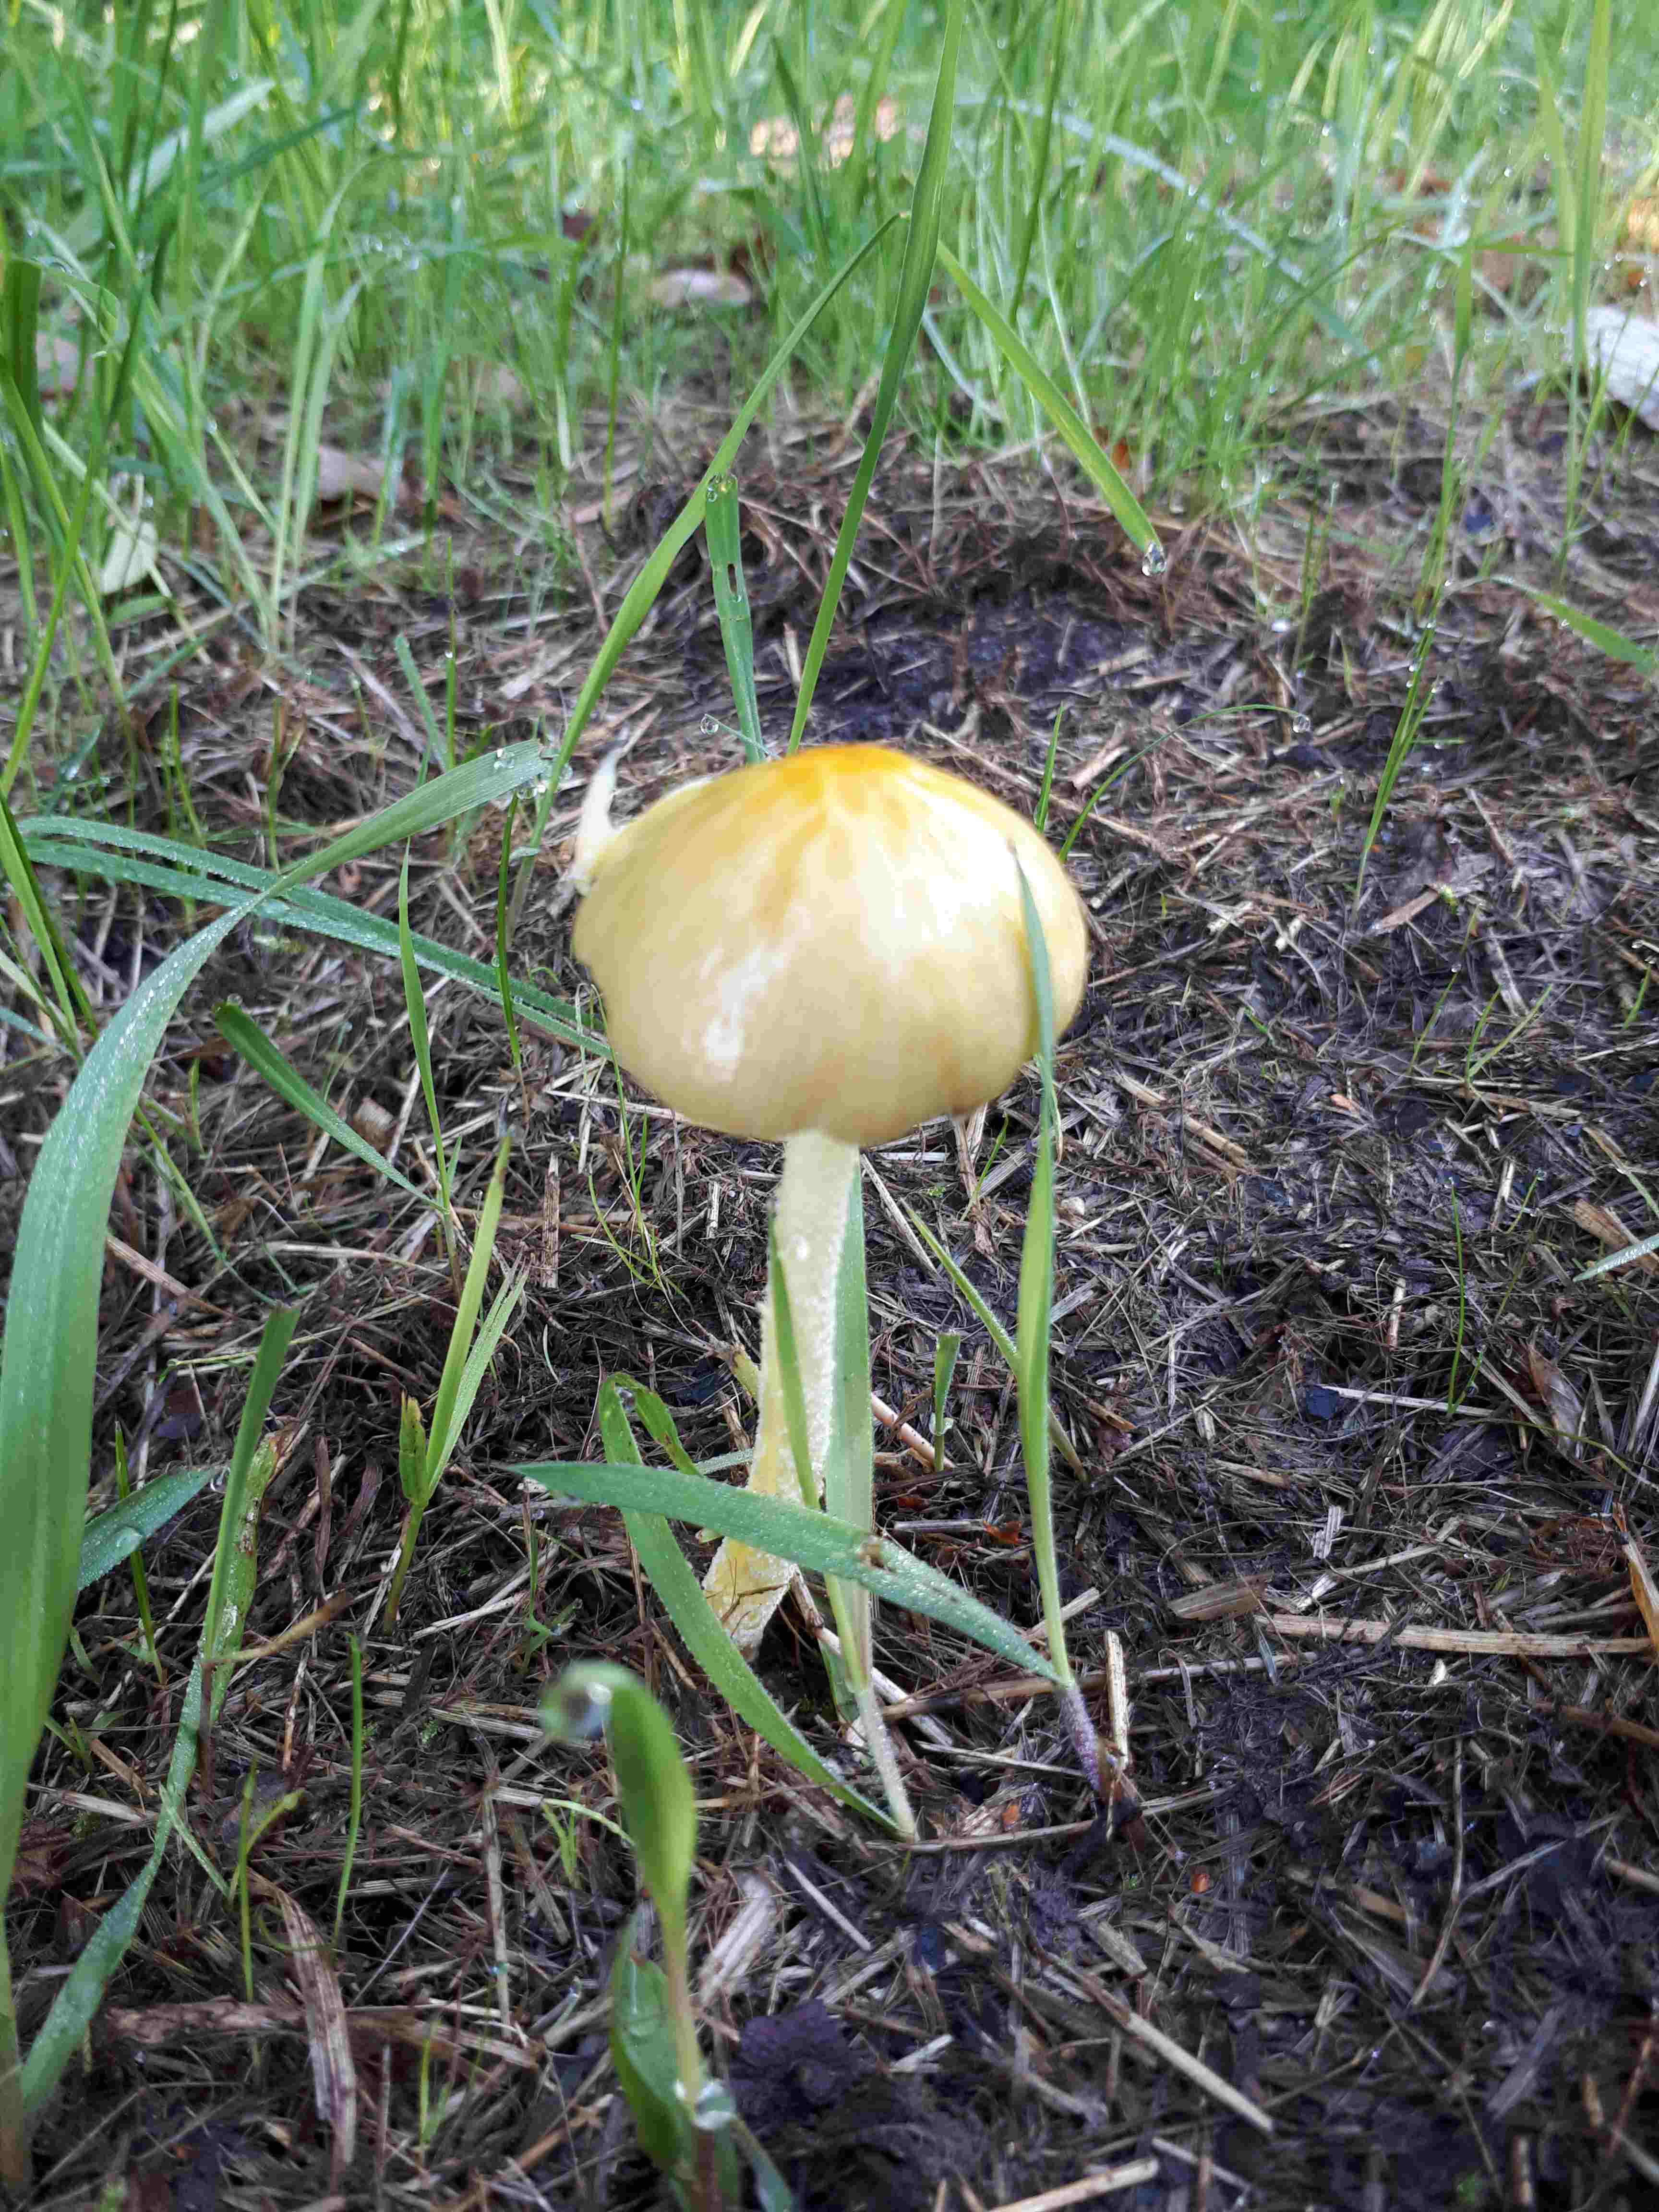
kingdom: Fungi
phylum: Basidiomycota
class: Agaricomycetes
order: Agaricales
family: Bolbitiaceae
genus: Bolbitius
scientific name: Bolbitius titubans
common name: almindelig gulhat
